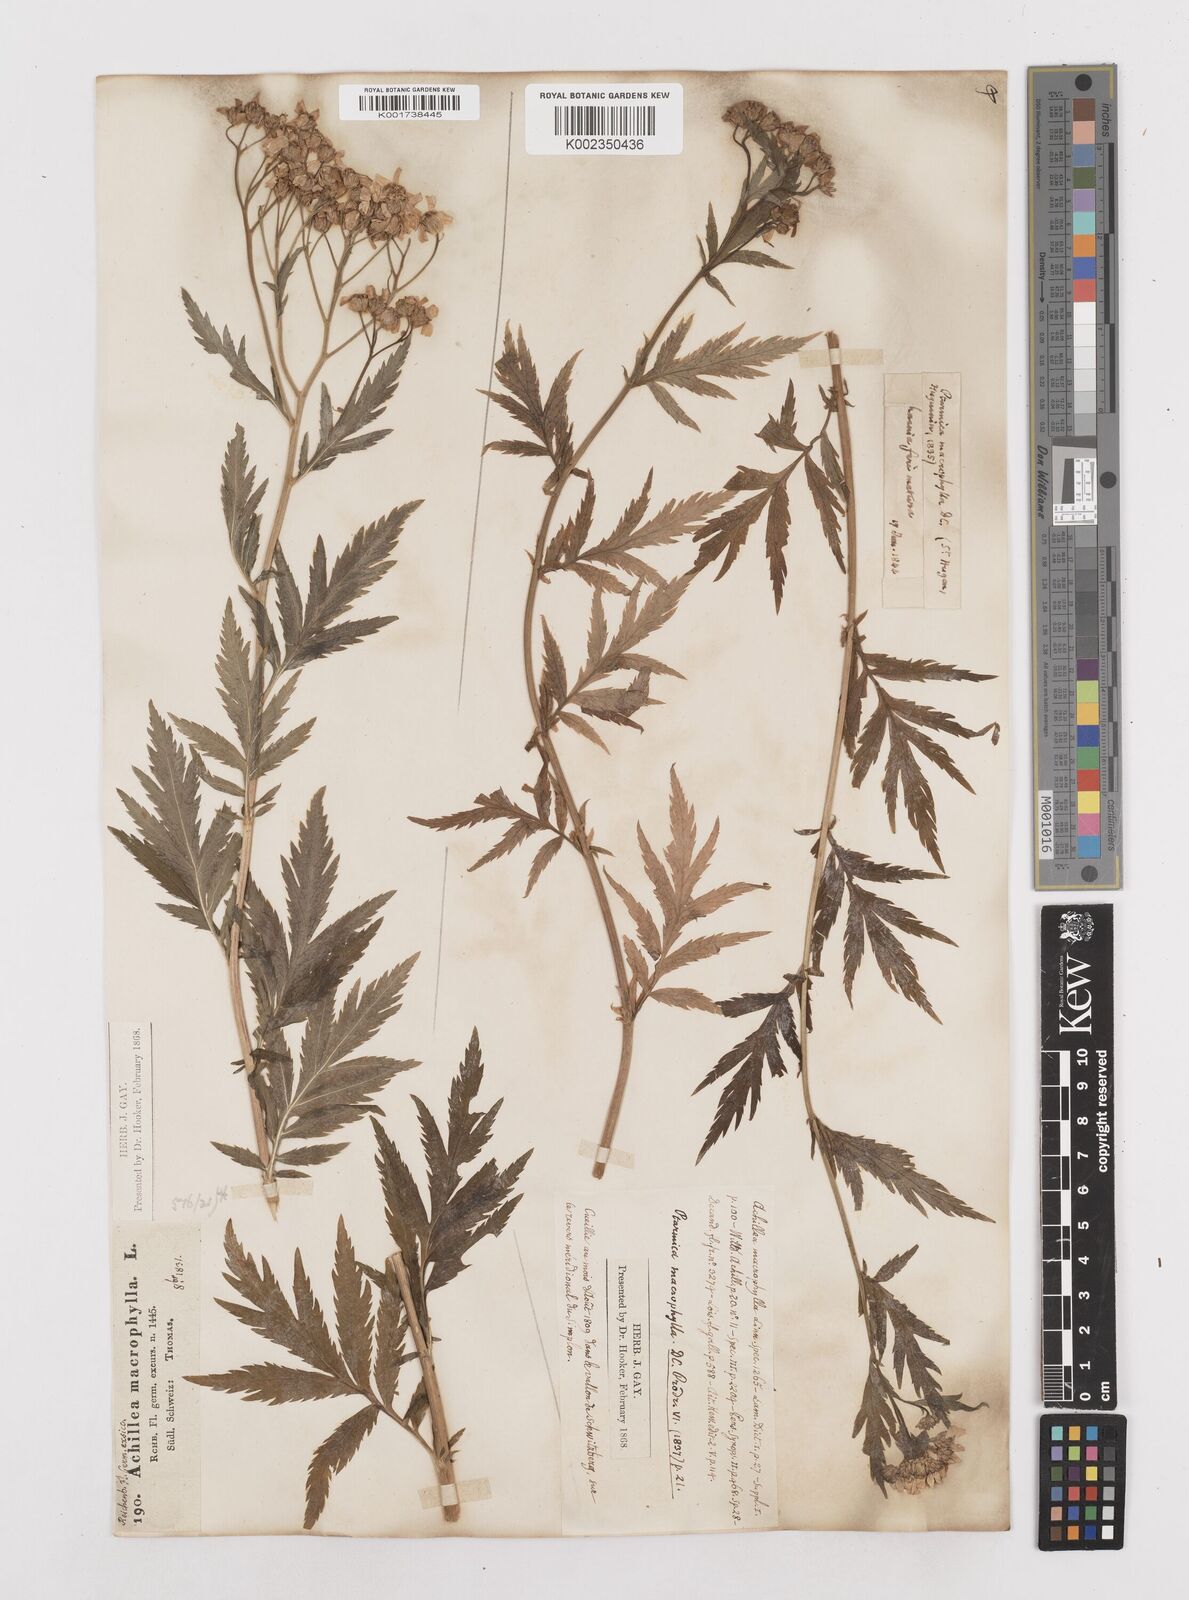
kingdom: Plantae
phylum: Tracheophyta
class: Magnoliopsida
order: Asterales
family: Asteraceae
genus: Achillea
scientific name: Achillea macrophylla
